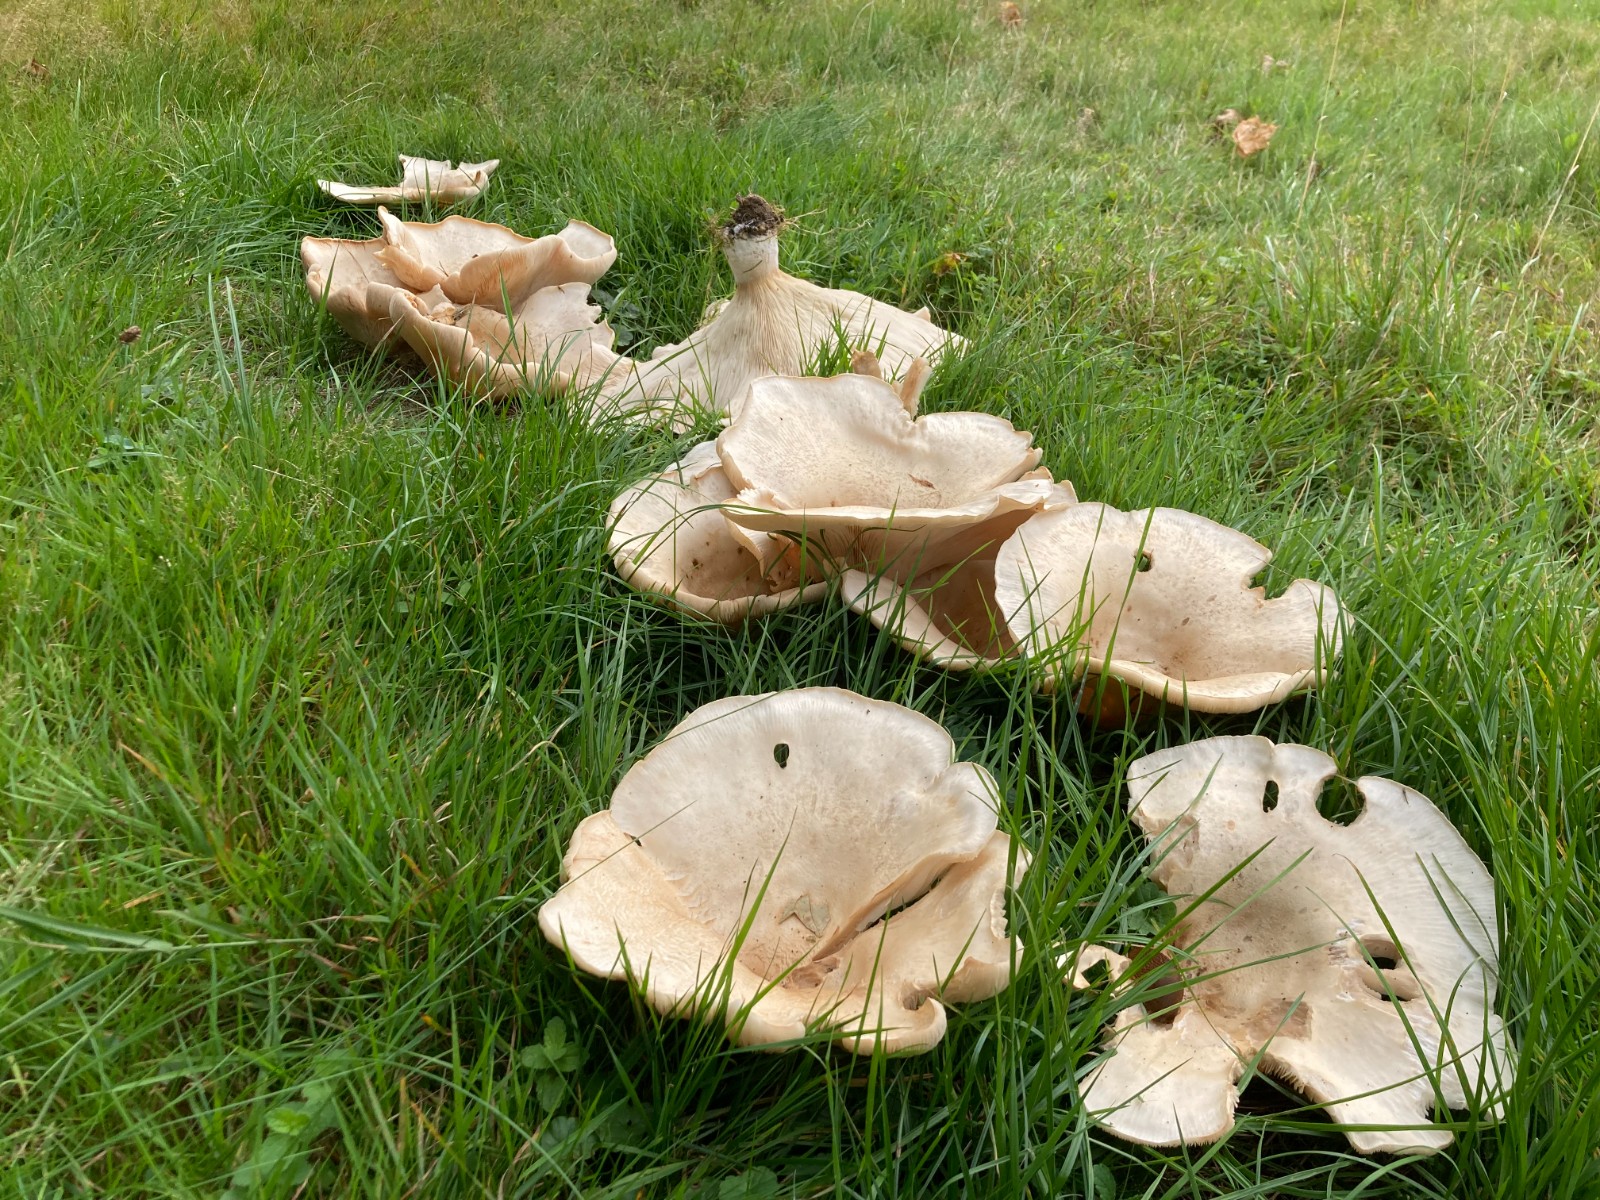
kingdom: Fungi
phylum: Basidiomycota
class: Agaricomycetes
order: Agaricales
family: Tricholomataceae
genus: Aspropaxillus
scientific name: Aspropaxillus giganteus
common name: kæmpe-tragtridderhat
